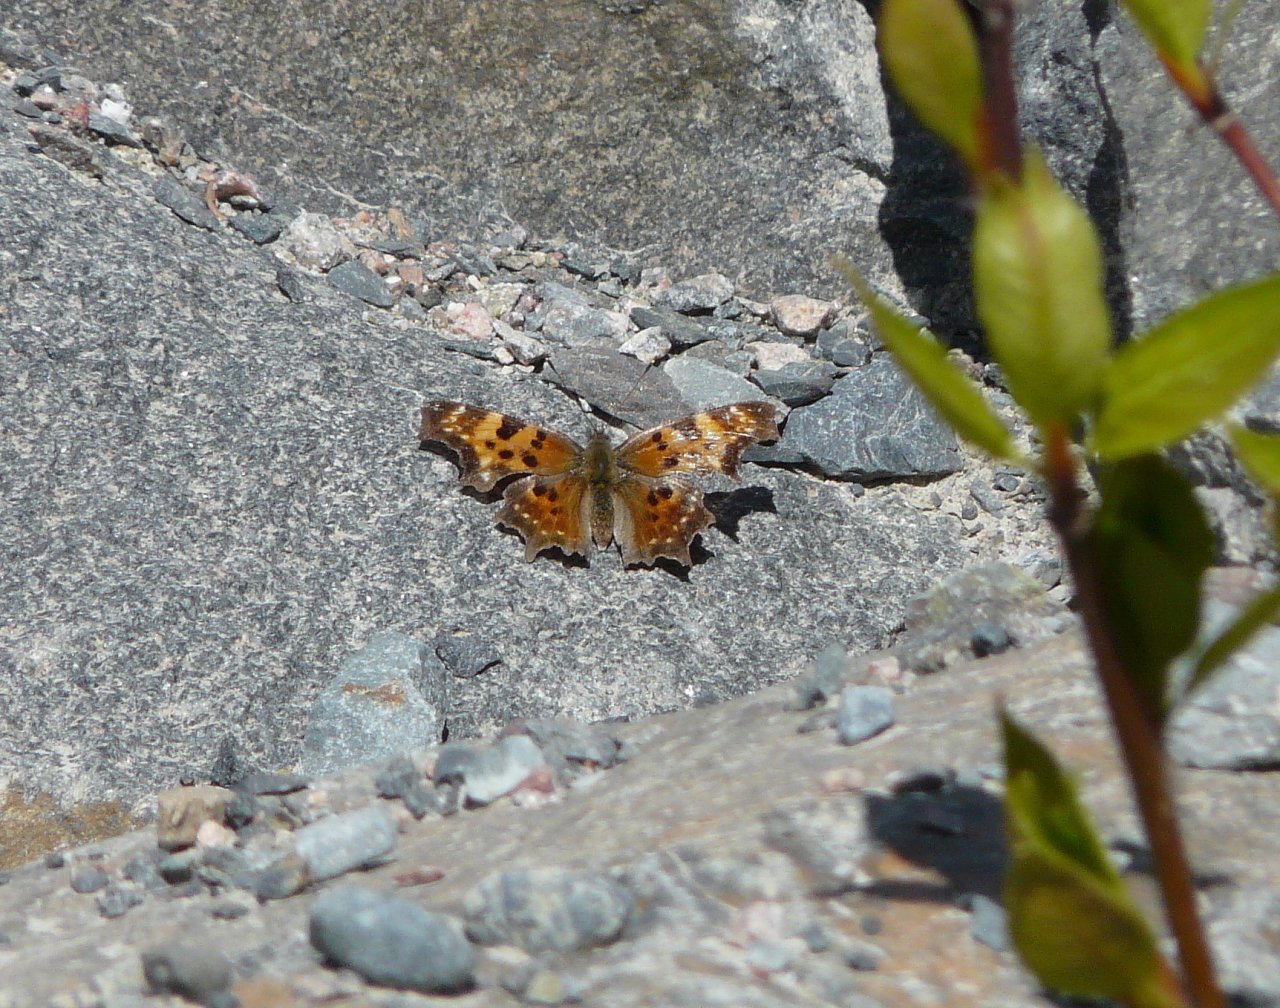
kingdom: Animalia
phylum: Arthropoda
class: Insecta
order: Lepidoptera
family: Nymphalidae
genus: Polygonia
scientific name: Polygonia faunus
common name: Green Comma
